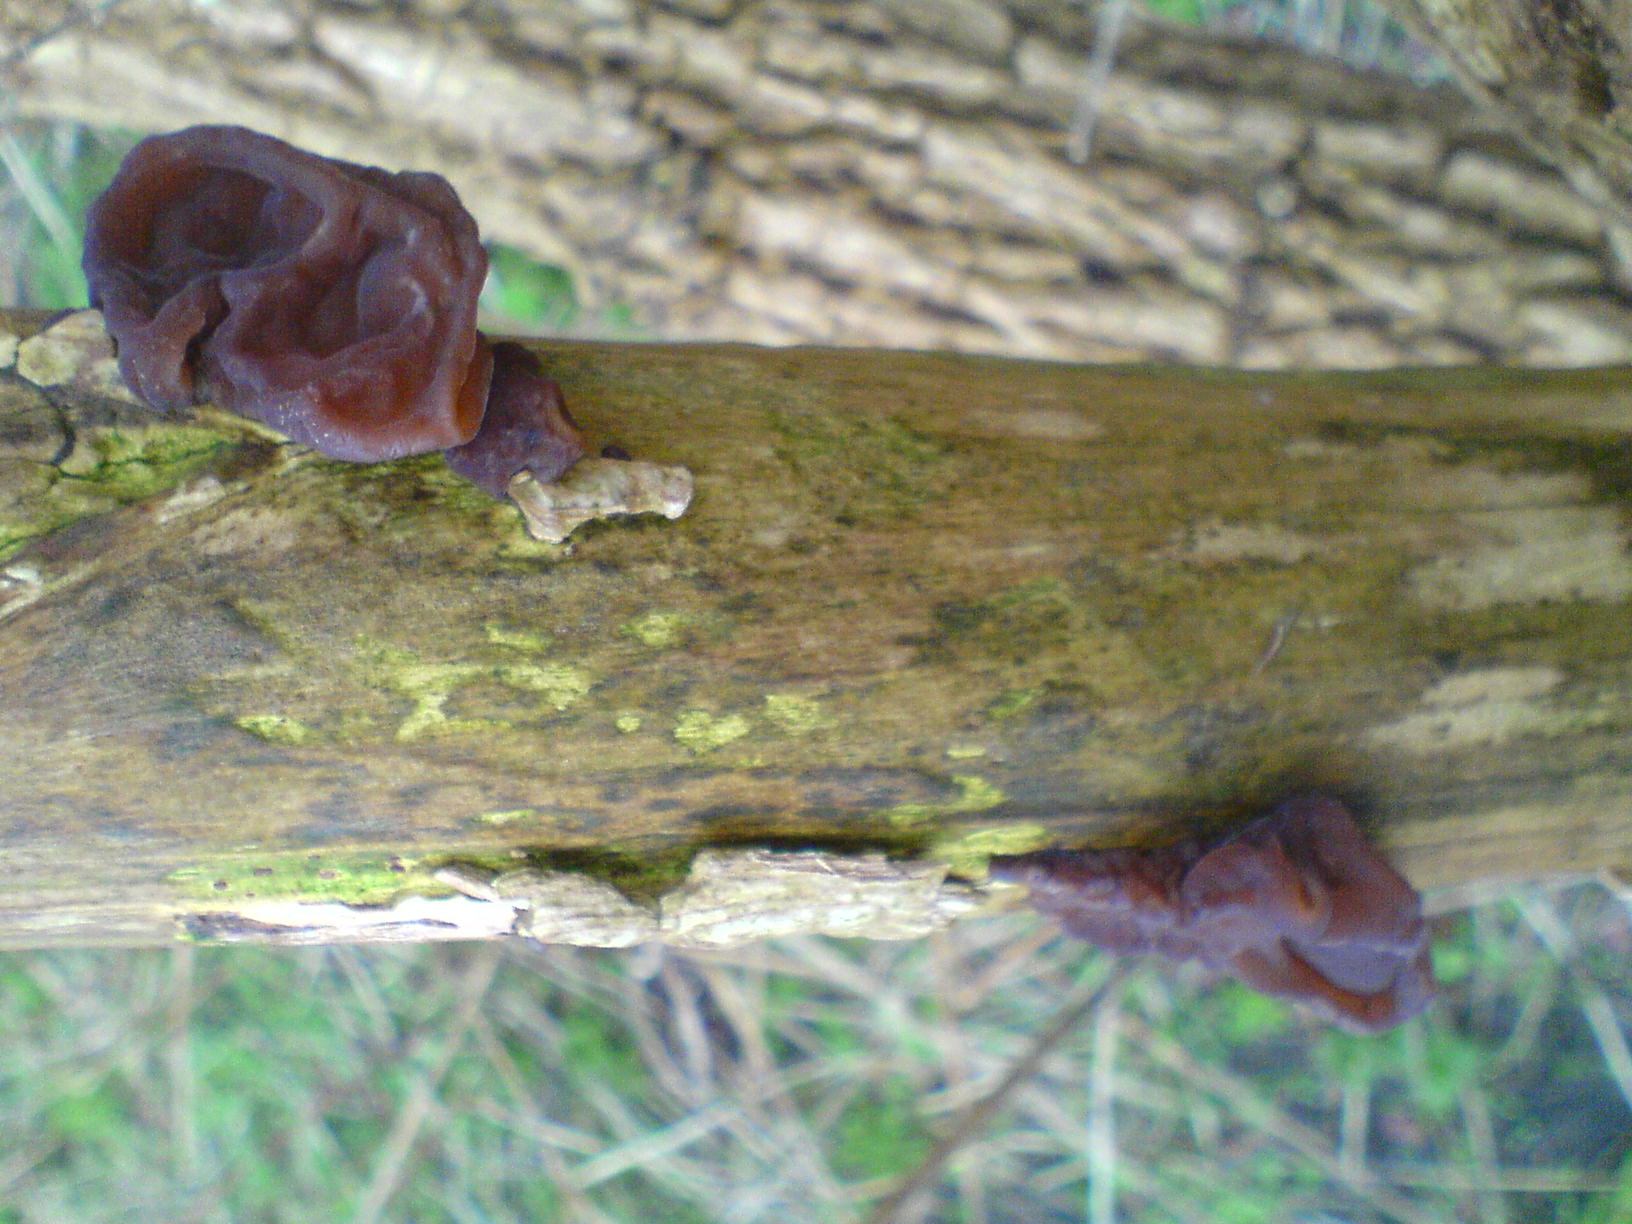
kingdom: Fungi
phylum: Basidiomycota
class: Agaricomycetes
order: Agaricales
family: Physalacriaceae
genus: Flammulina
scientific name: Flammulina velutipes
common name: gul fløjlsfod
